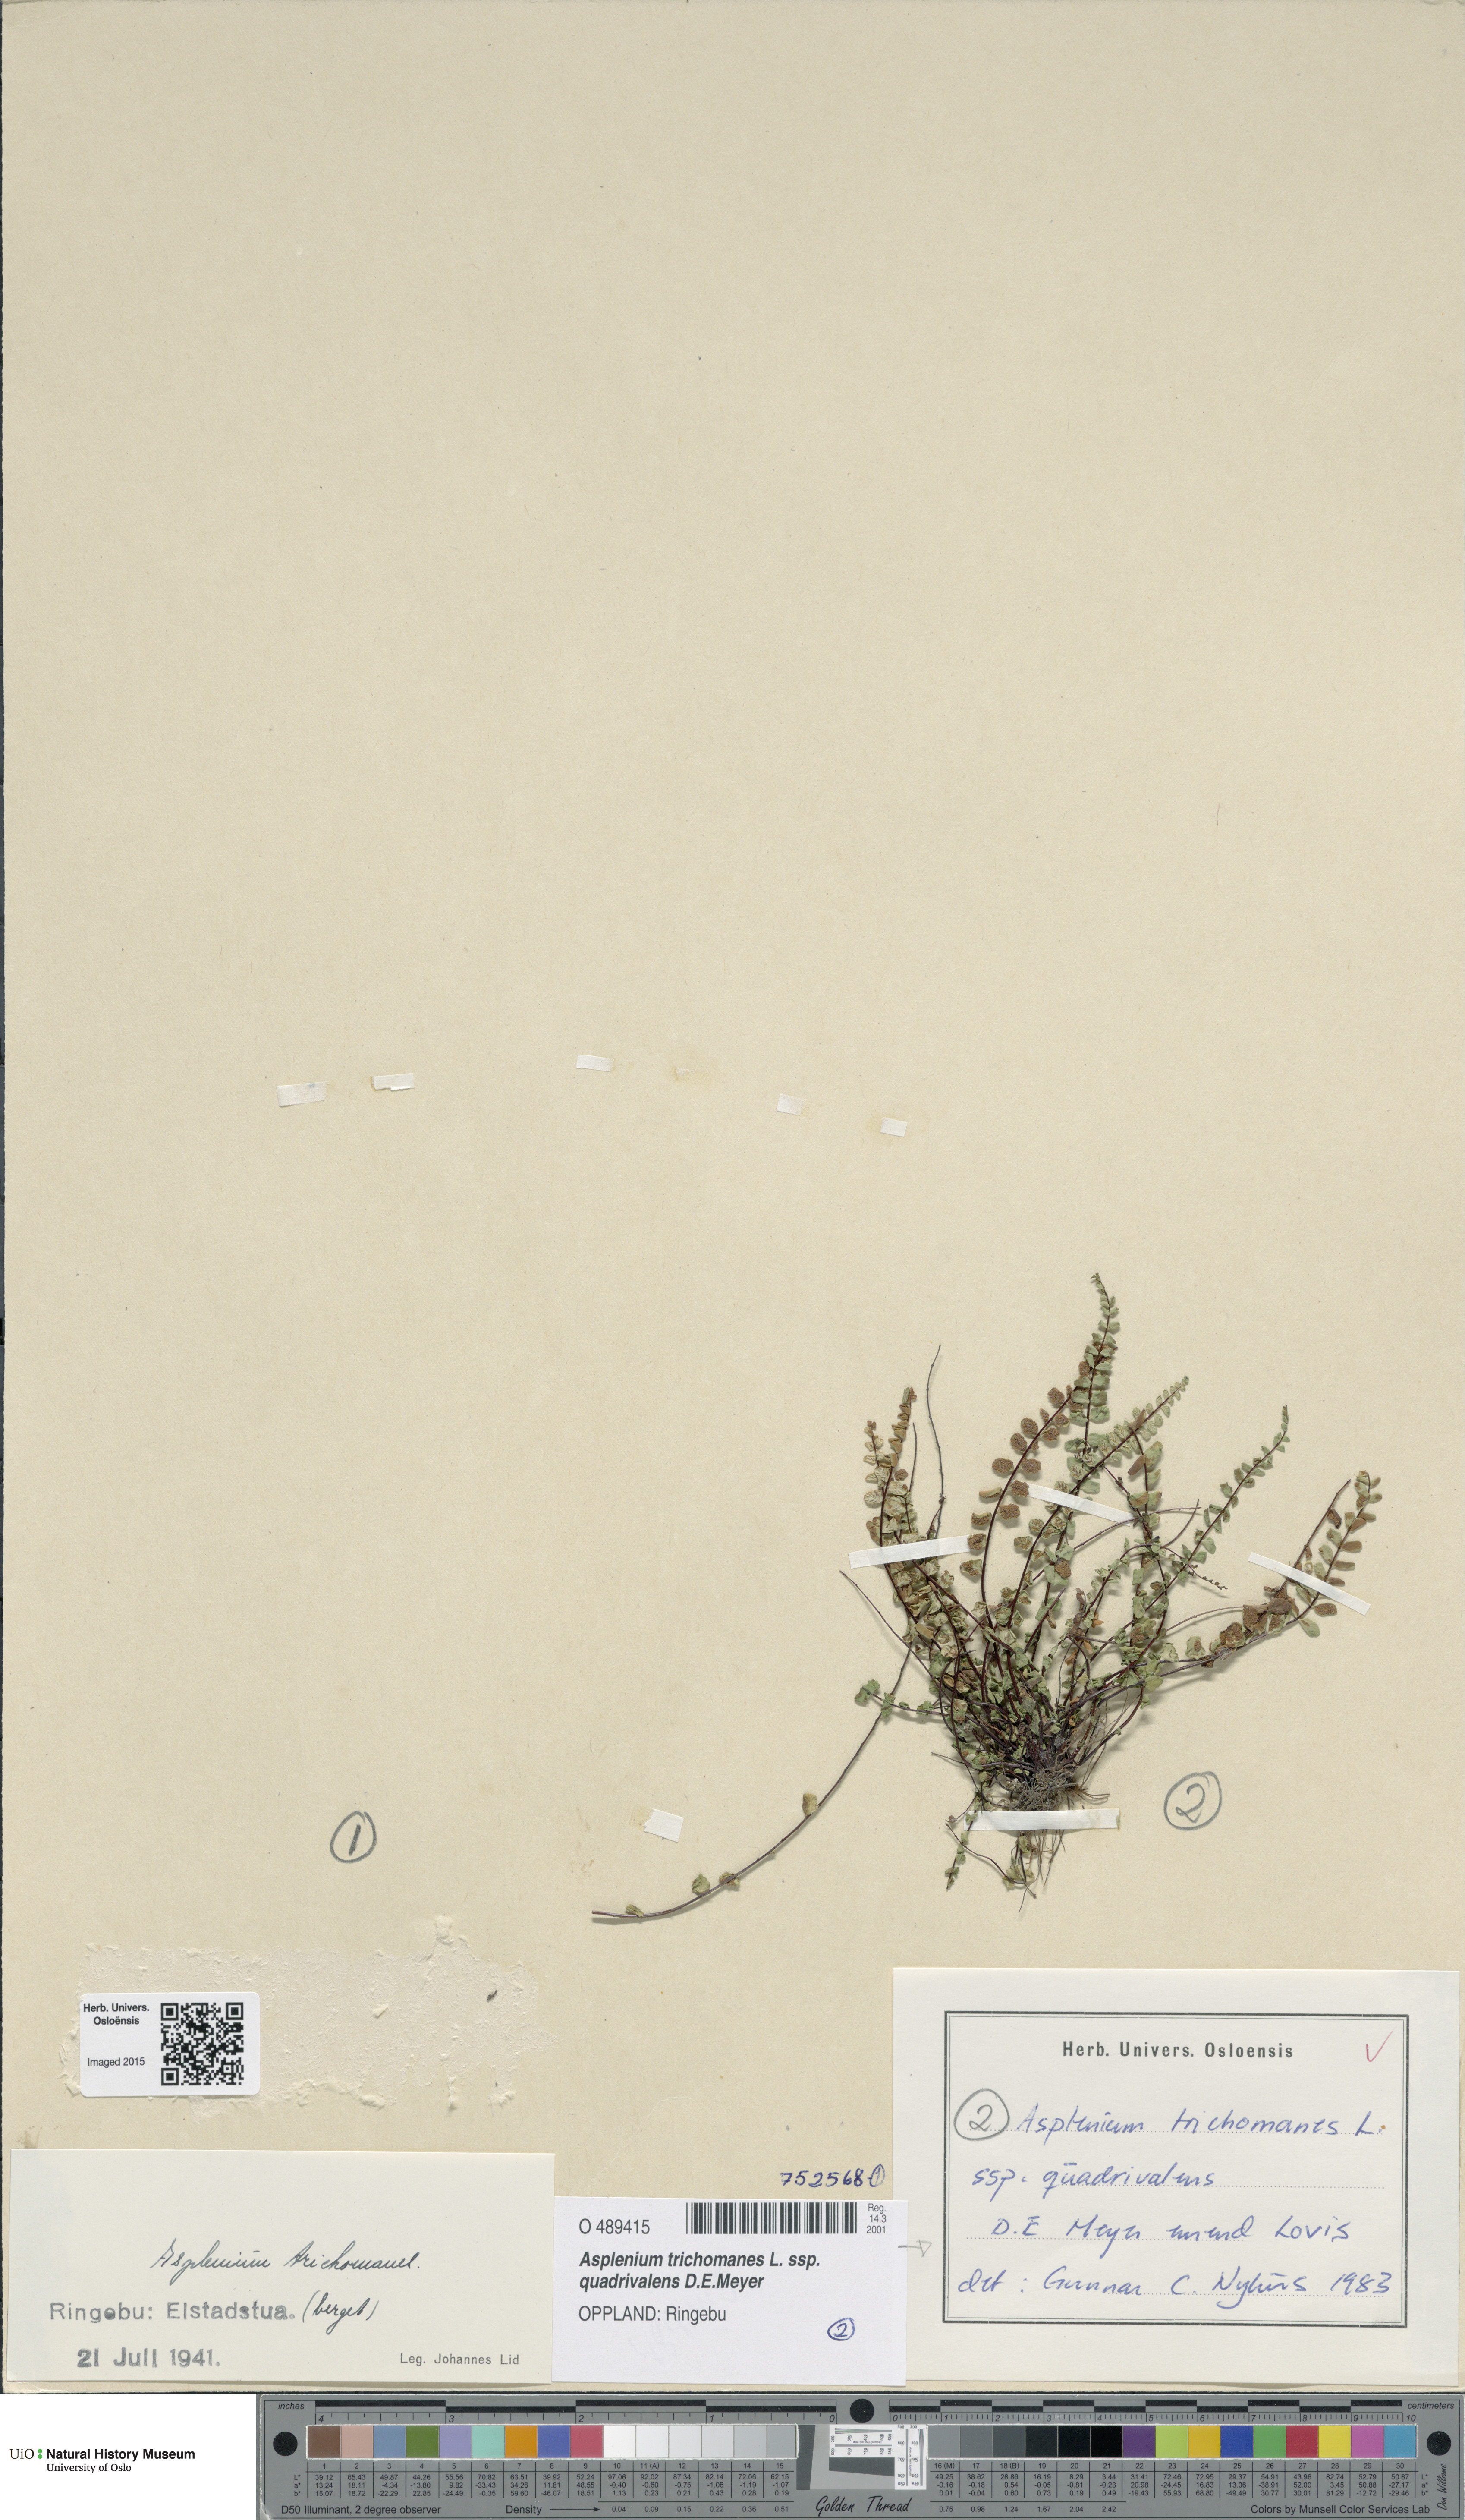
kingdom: Plantae
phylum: Tracheophyta
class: Polypodiopsida
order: Polypodiales
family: Aspleniaceae
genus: Asplenium
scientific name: Asplenium quadrivalens
